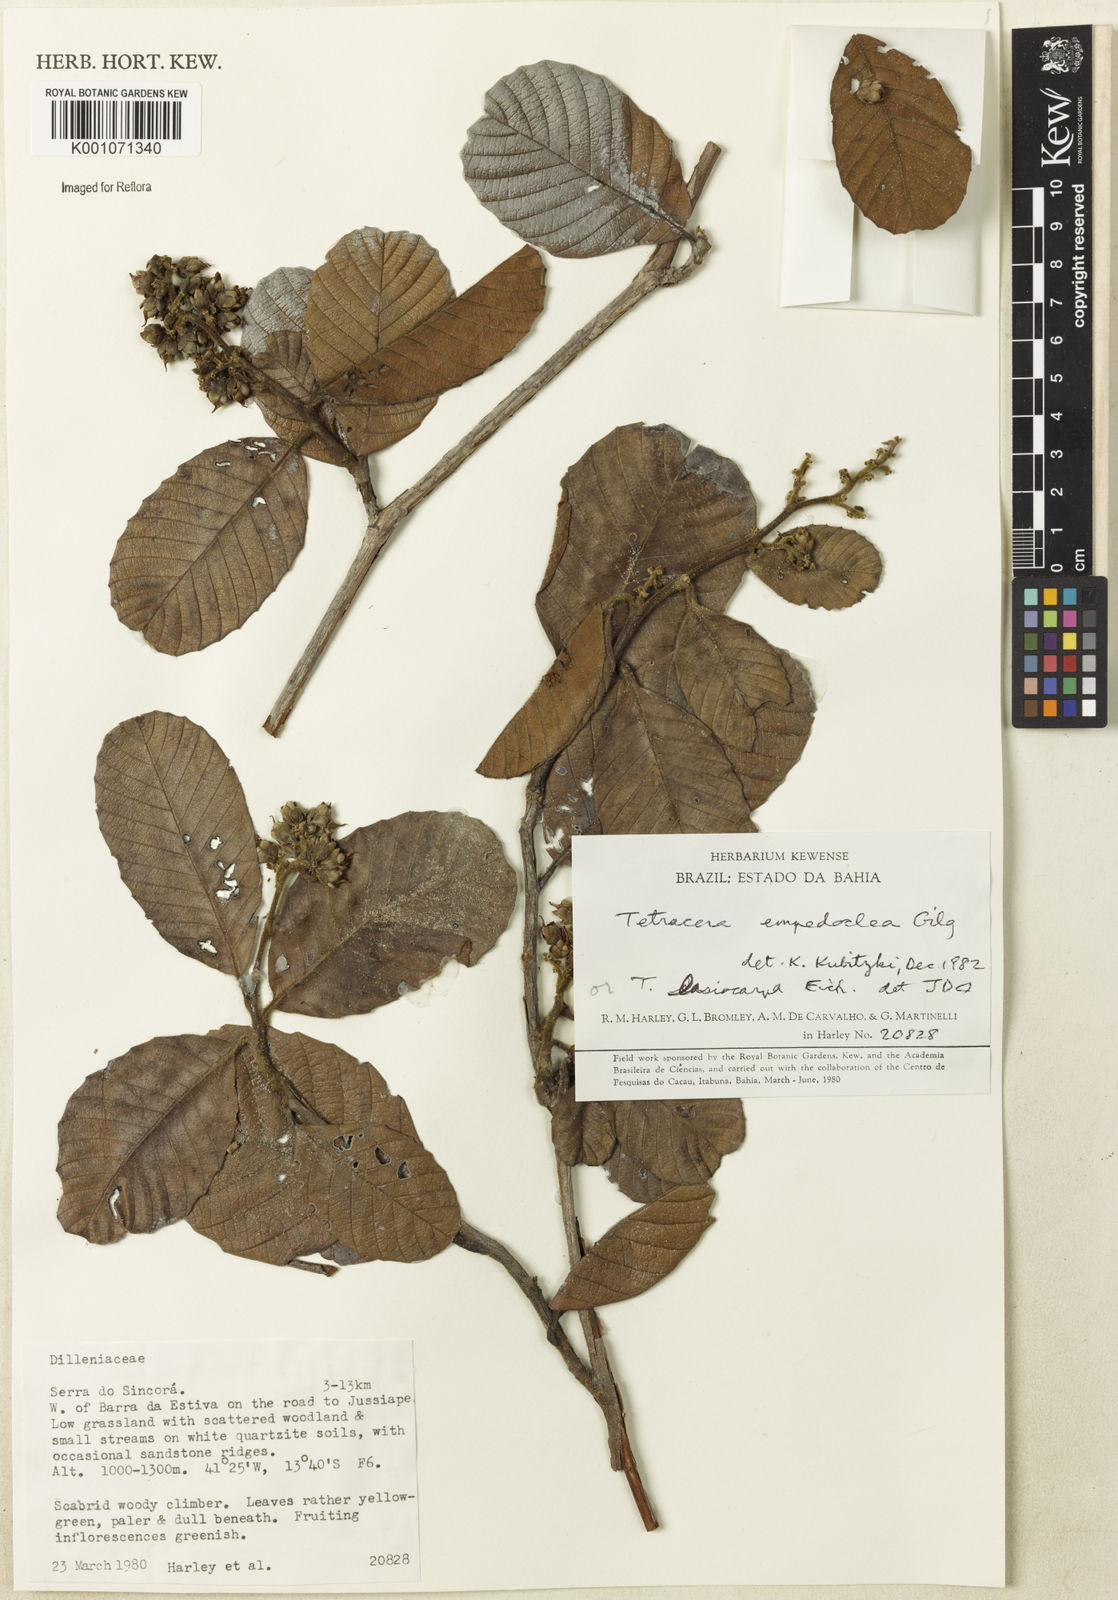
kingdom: Plantae
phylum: Tracheophyta
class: Magnoliopsida
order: Dilleniales
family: Dilleniaceae
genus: Tetracera
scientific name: Tetracera empedoclea
